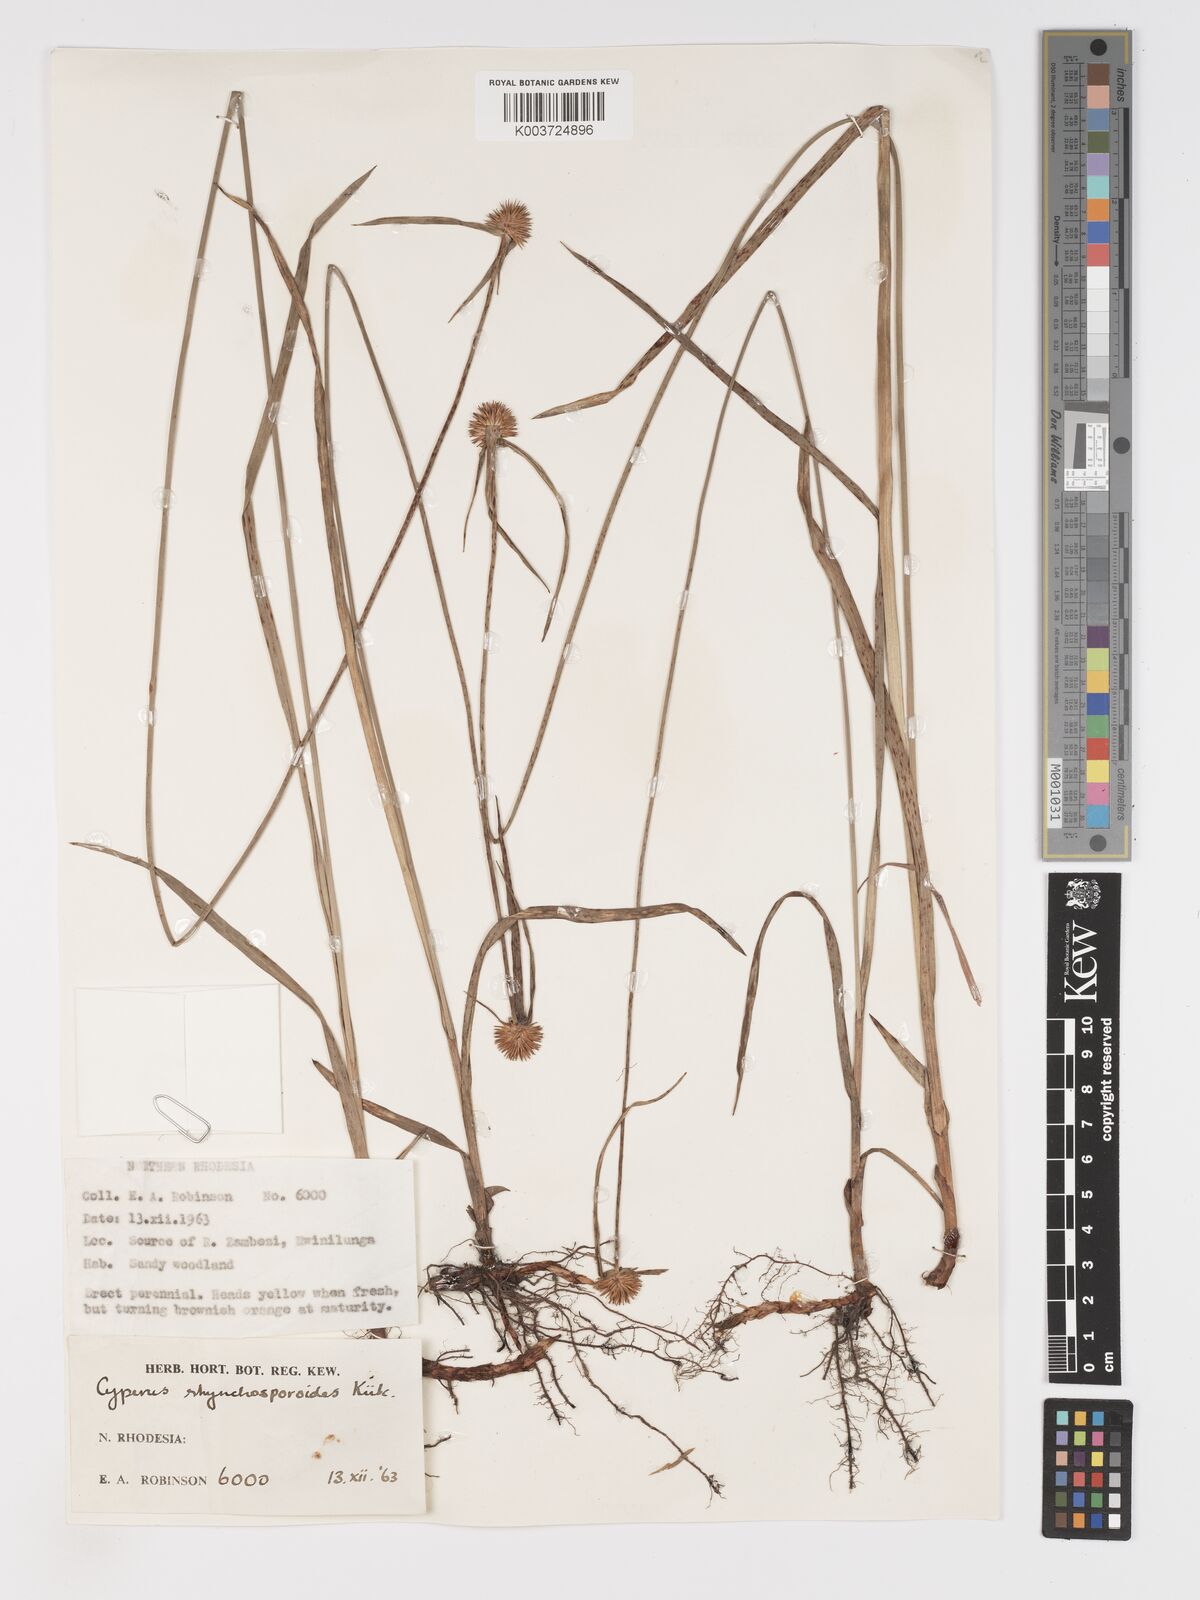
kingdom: Plantae
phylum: Tracheophyta
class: Liliopsida
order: Poales
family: Cyperaceae
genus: Cyperus
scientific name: Cyperus rhynchosporoides
